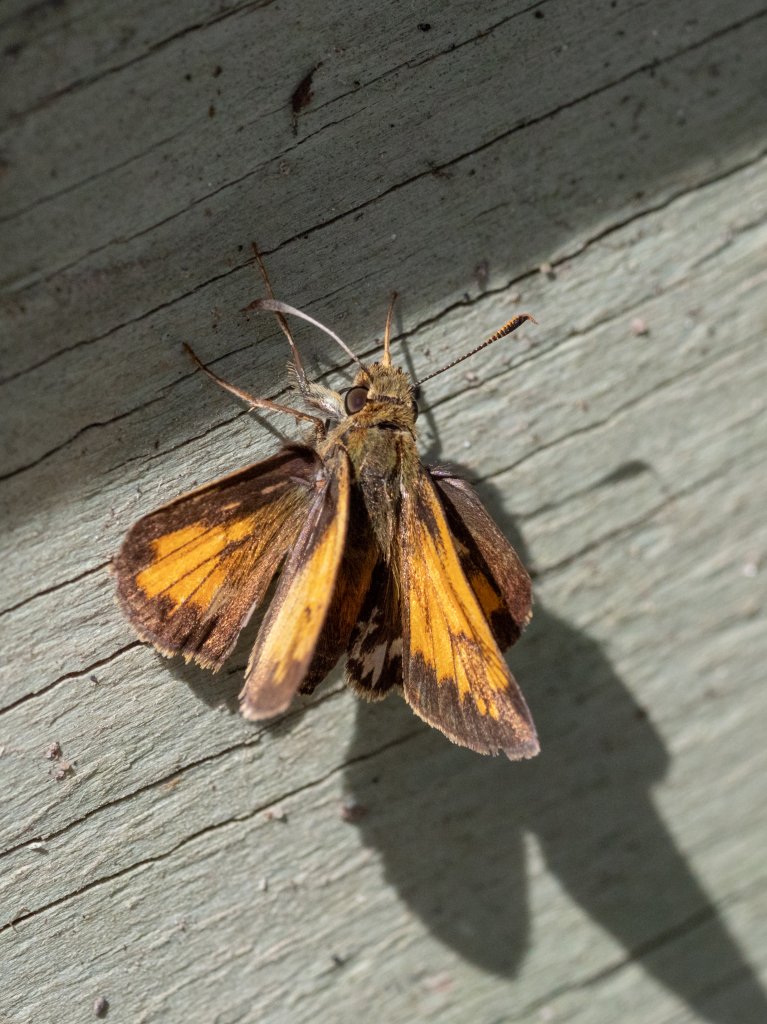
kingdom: Animalia
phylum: Arthropoda
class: Insecta
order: Lepidoptera
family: Hesperiidae
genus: Lon
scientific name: Lon hobomok
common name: Hobomok Skipper
